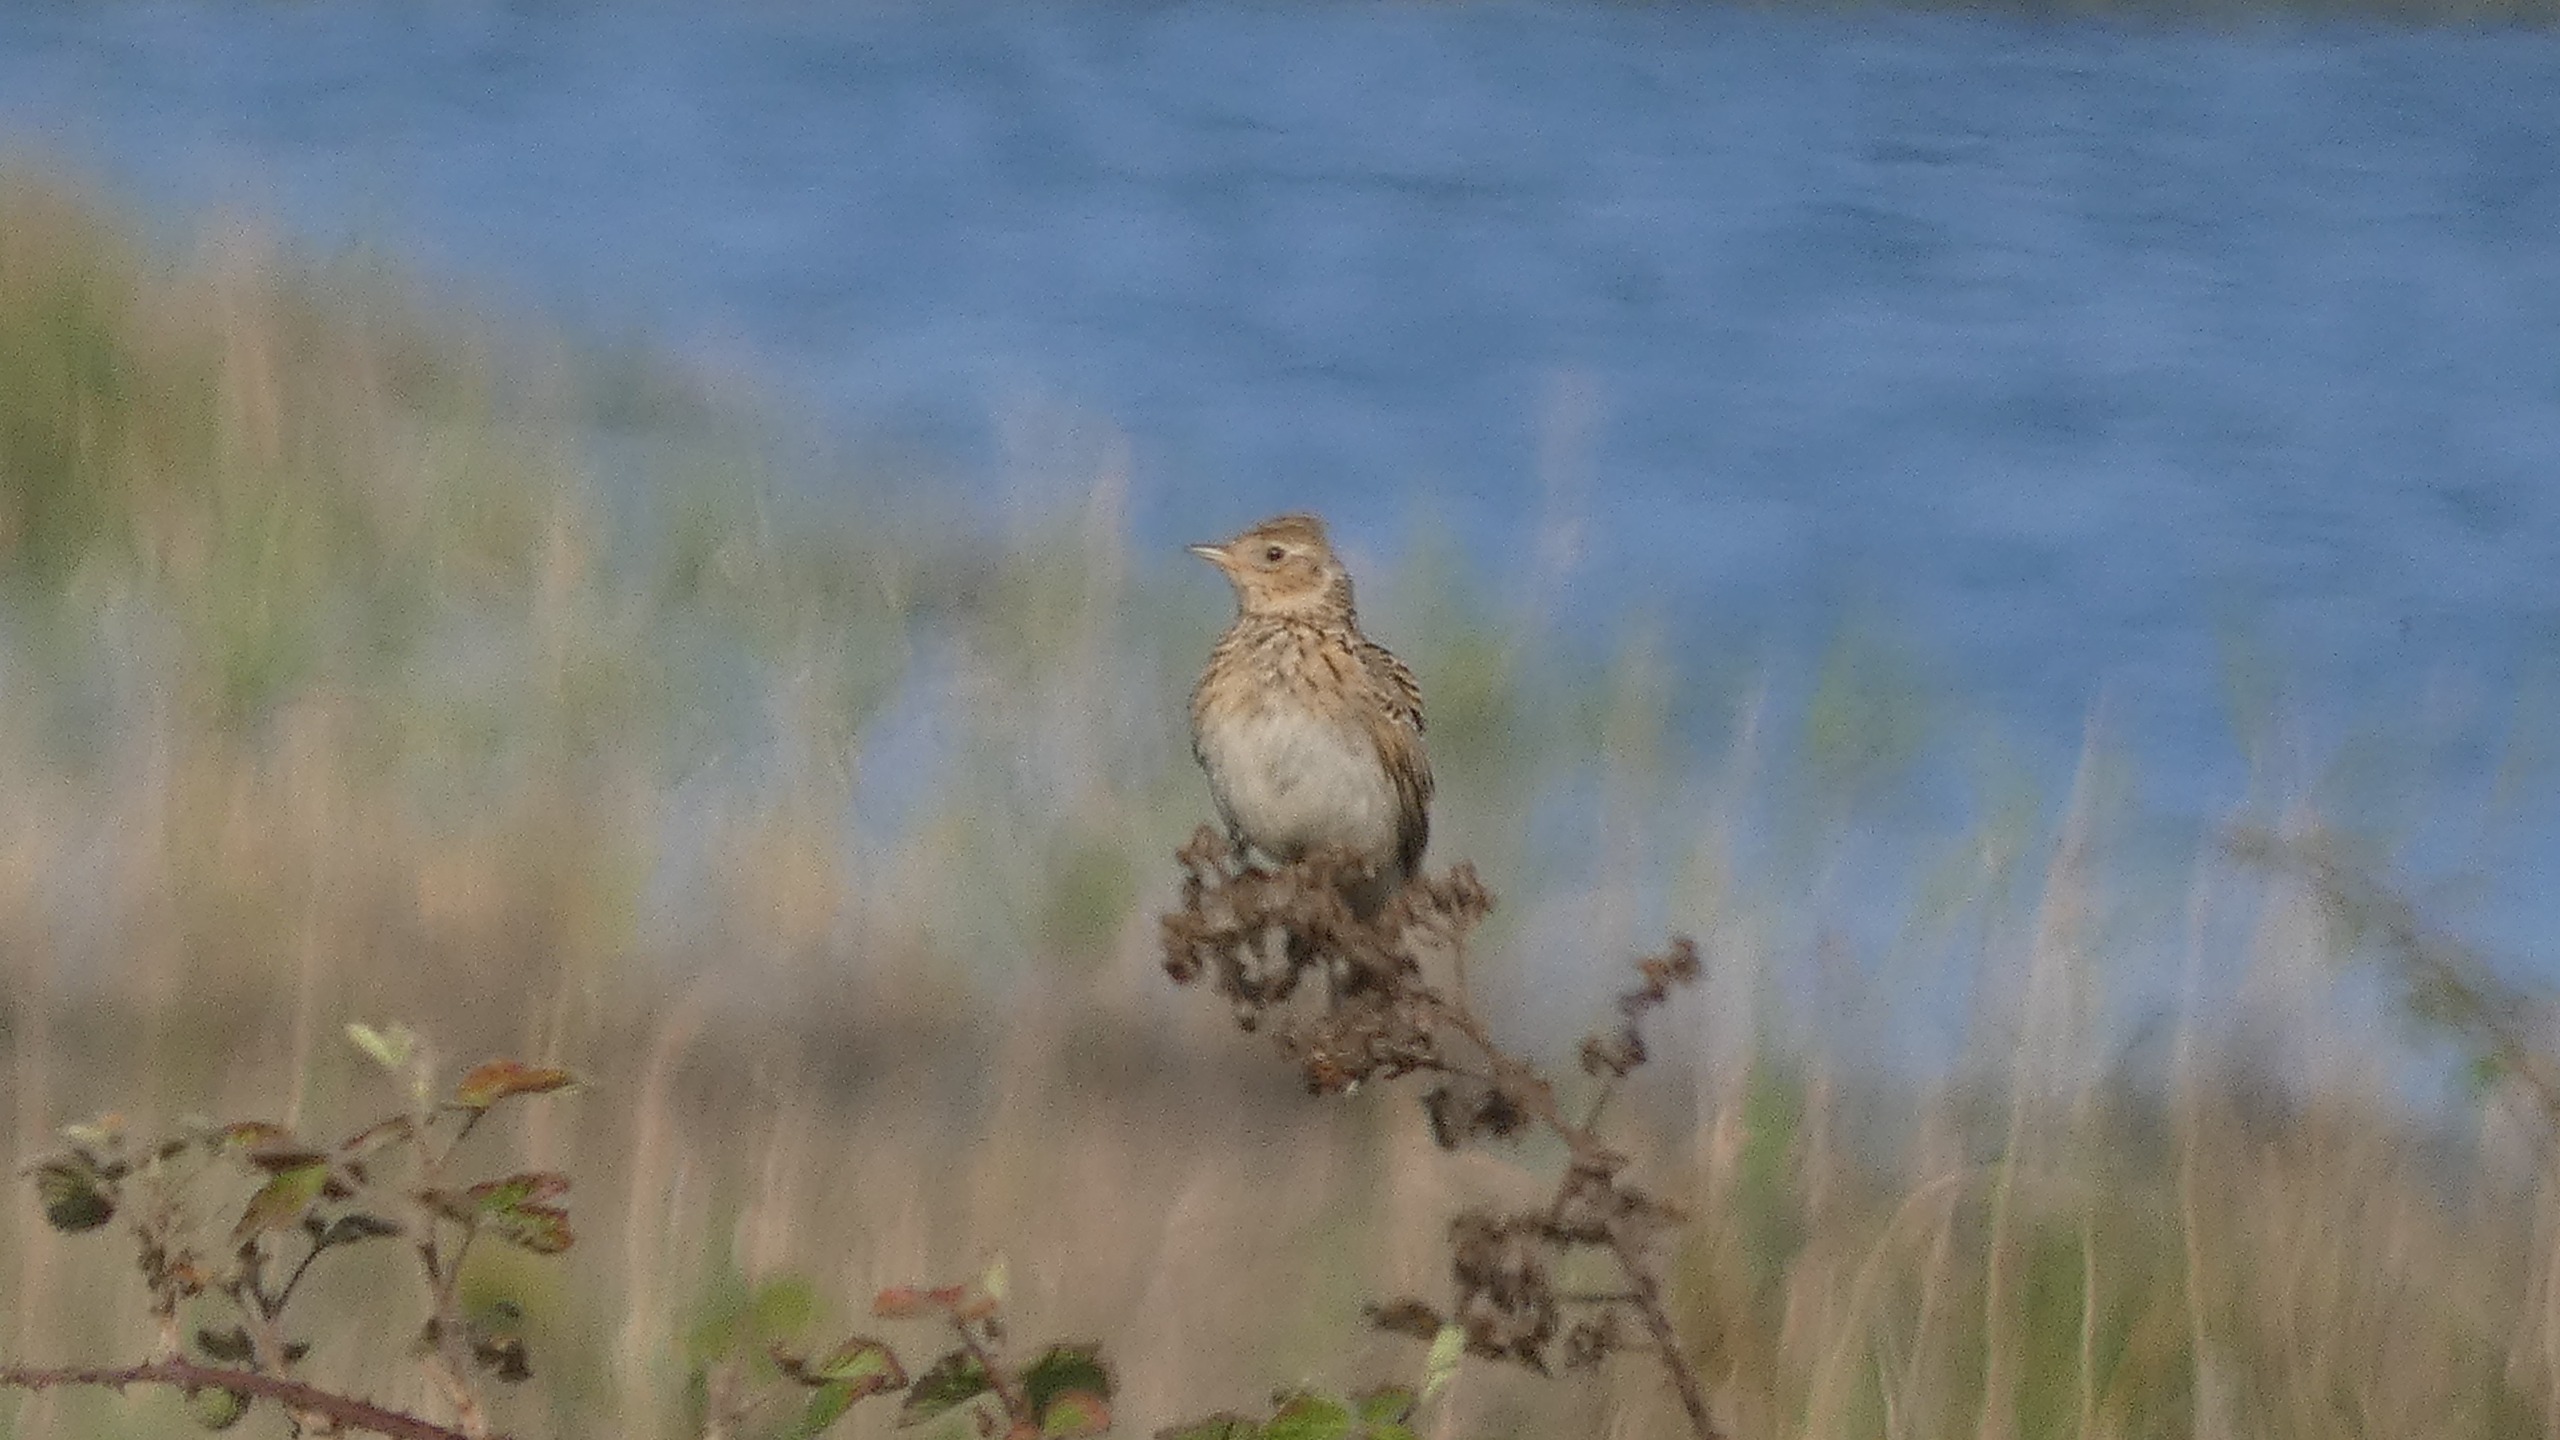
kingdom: Animalia
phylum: Chordata
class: Aves
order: Passeriformes
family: Alaudidae
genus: Alauda
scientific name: Alauda arvensis
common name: Sanglærke
